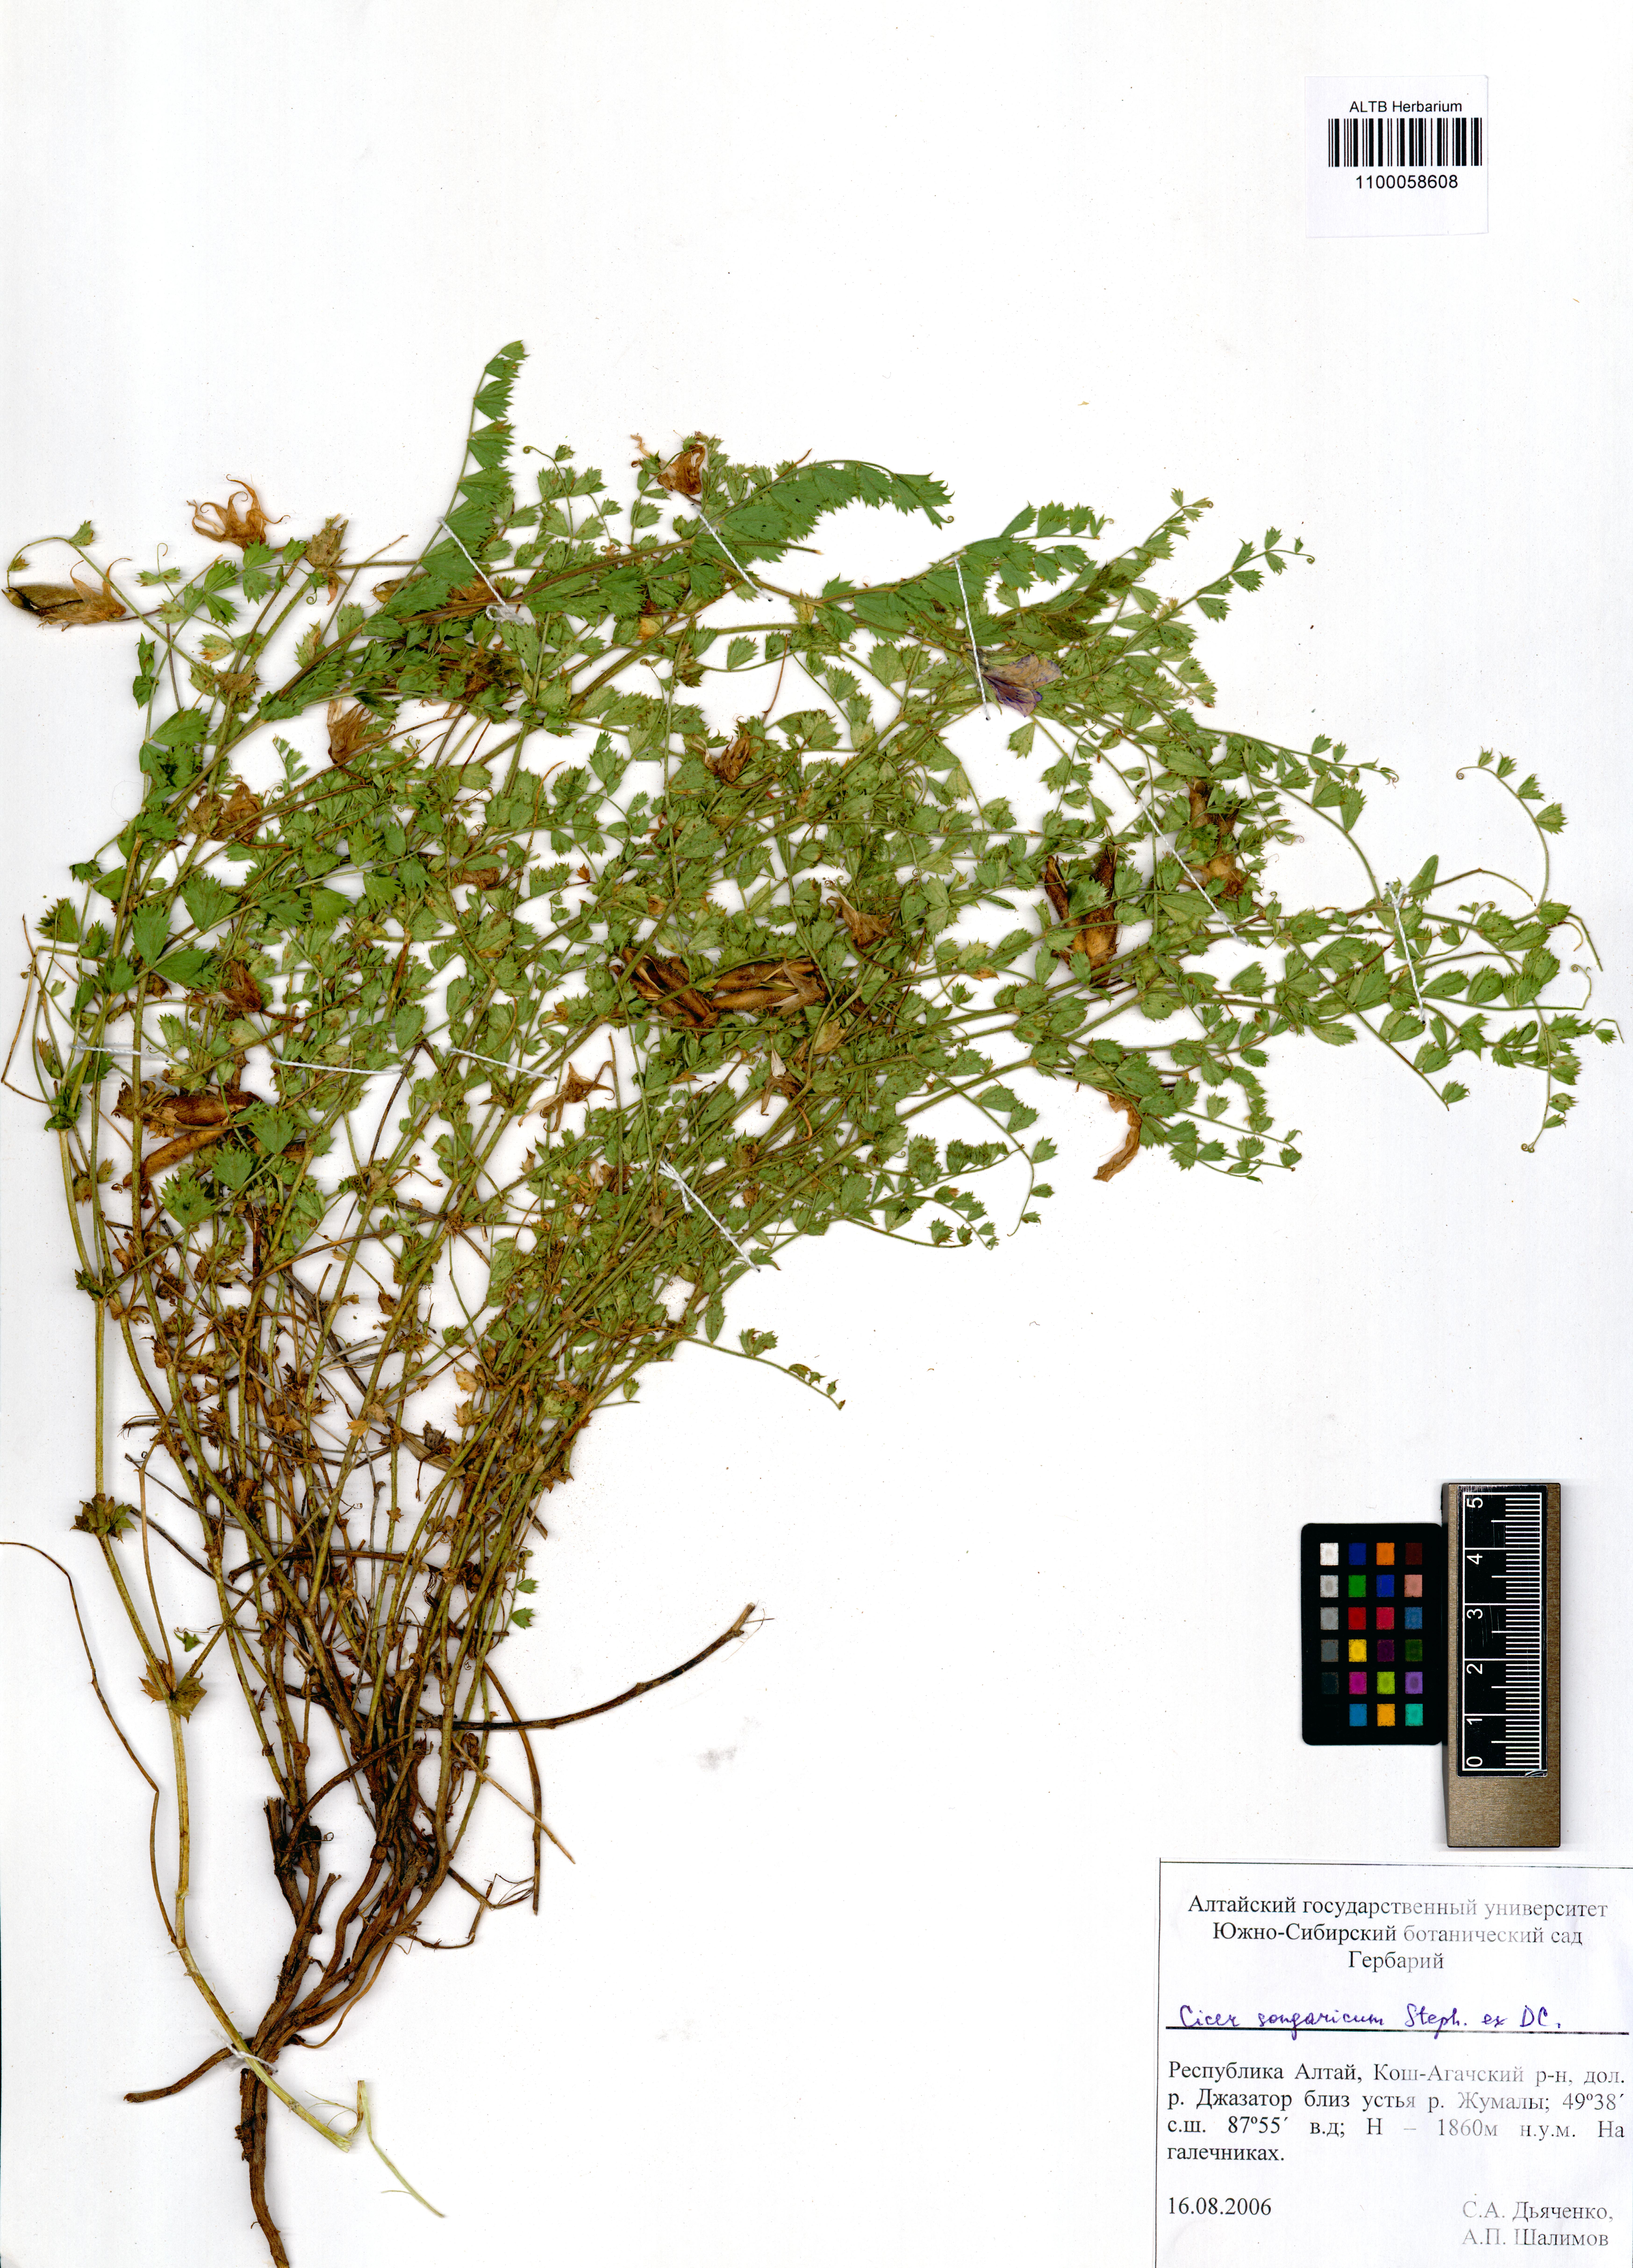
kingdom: Plantae
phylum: Tracheophyta
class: Magnoliopsida
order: Fabales
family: Fabaceae
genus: Cicer
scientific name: Cicer songaricum
